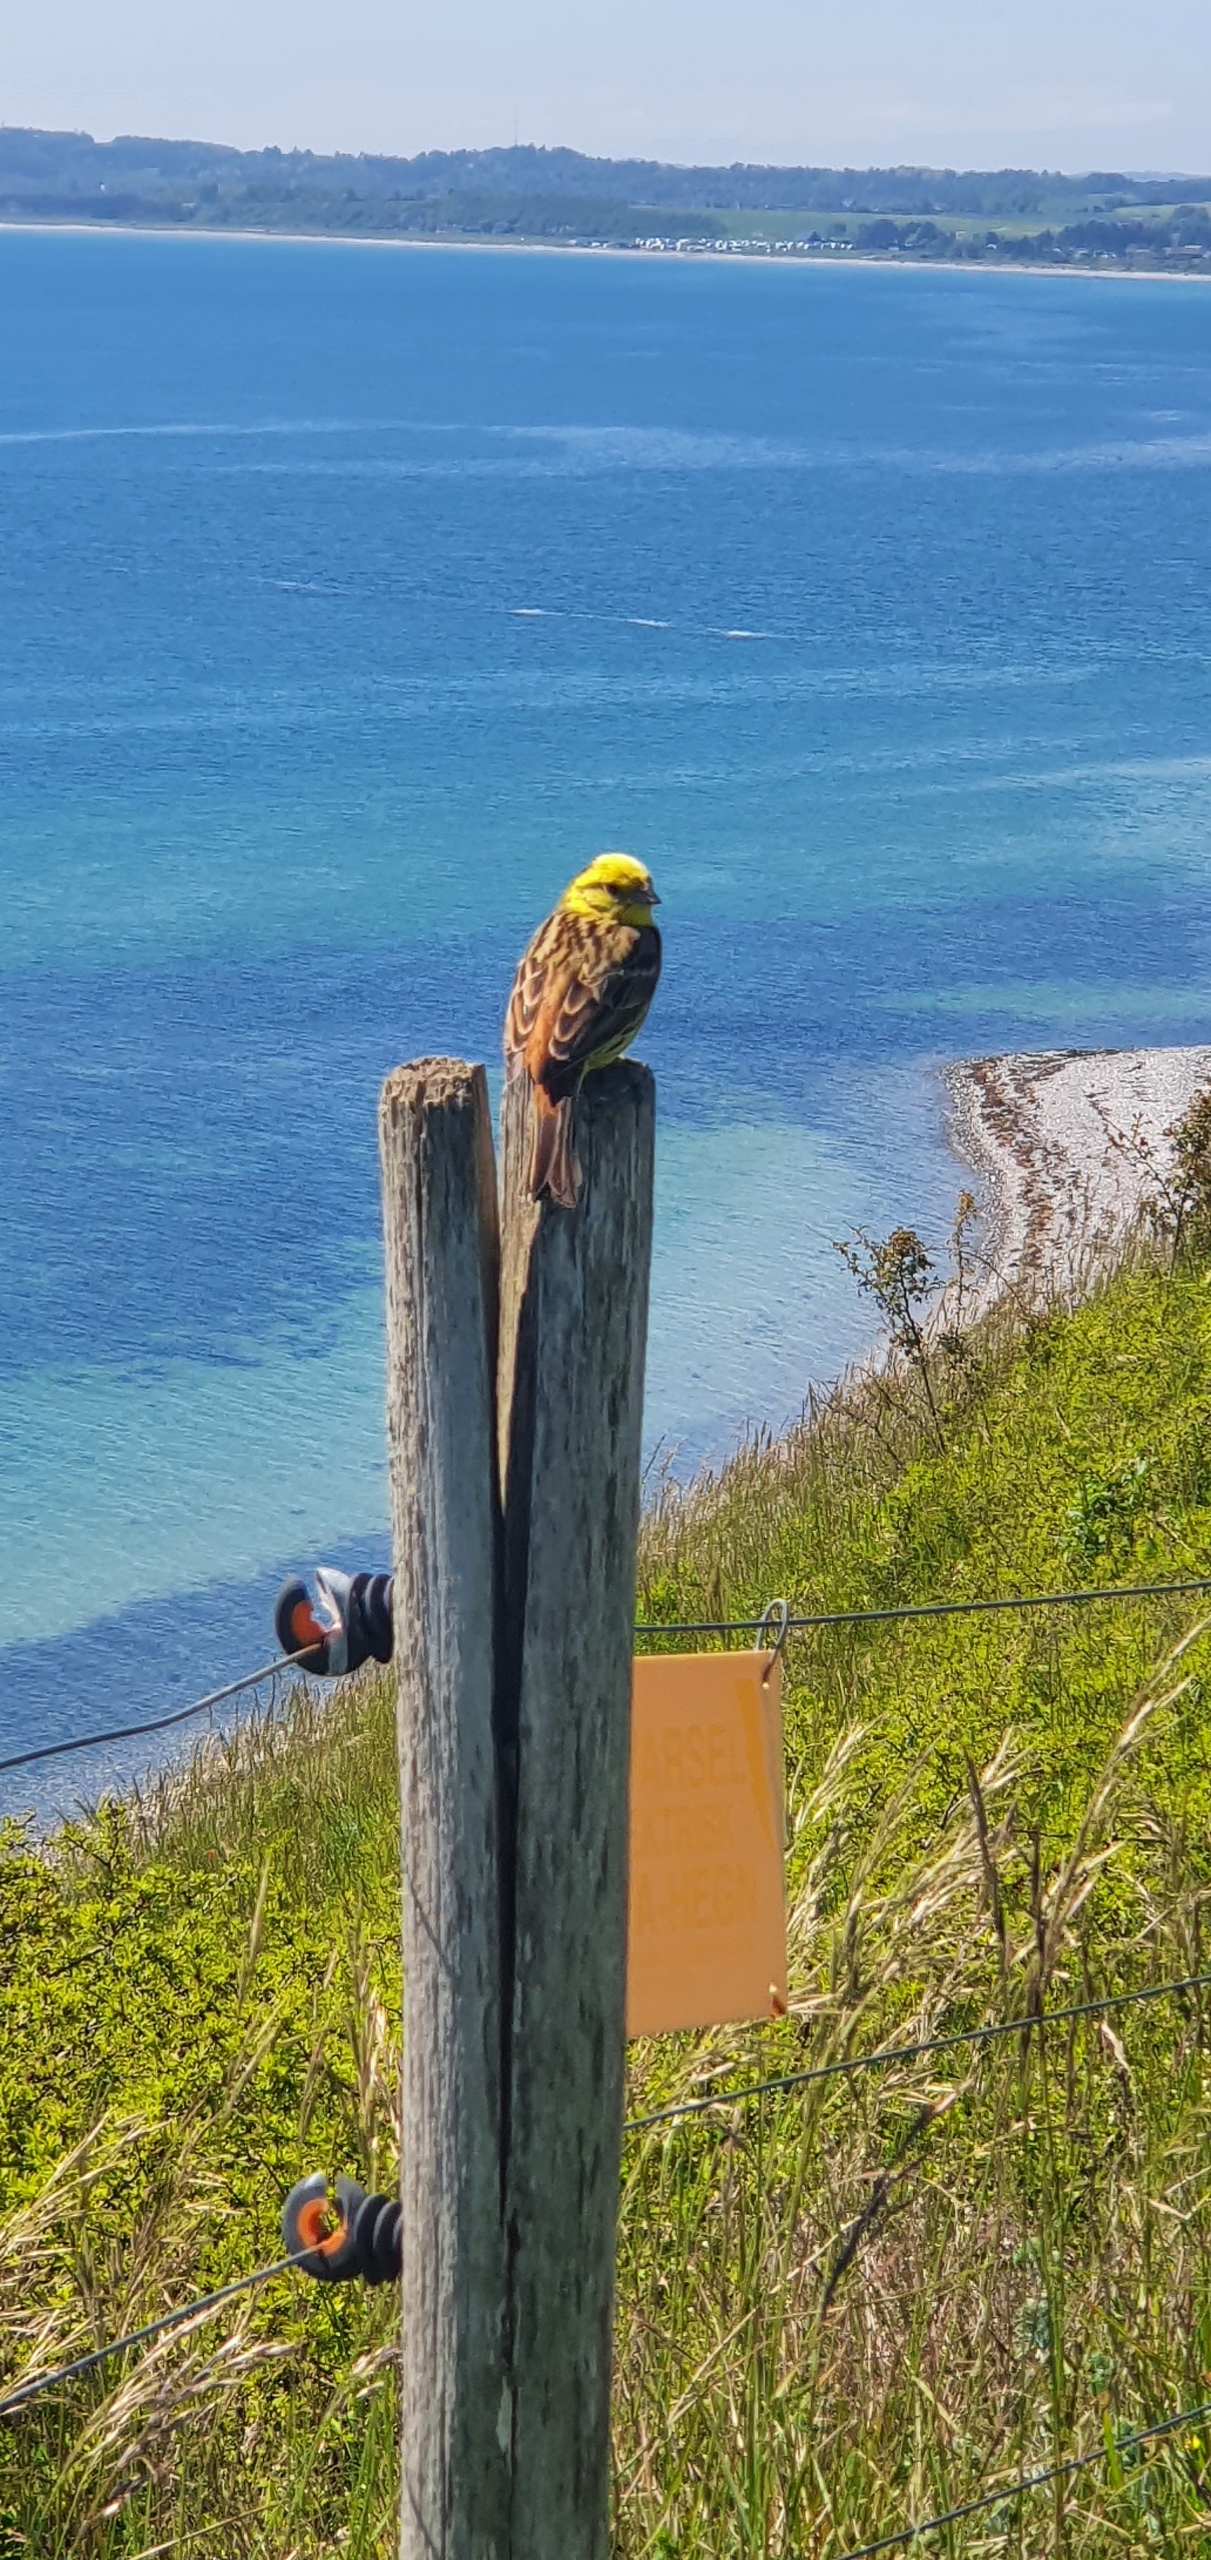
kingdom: Animalia
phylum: Chordata
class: Aves
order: Passeriformes
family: Emberizidae
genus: Emberiza
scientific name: Emberiza citrinella
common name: Gulspurv
